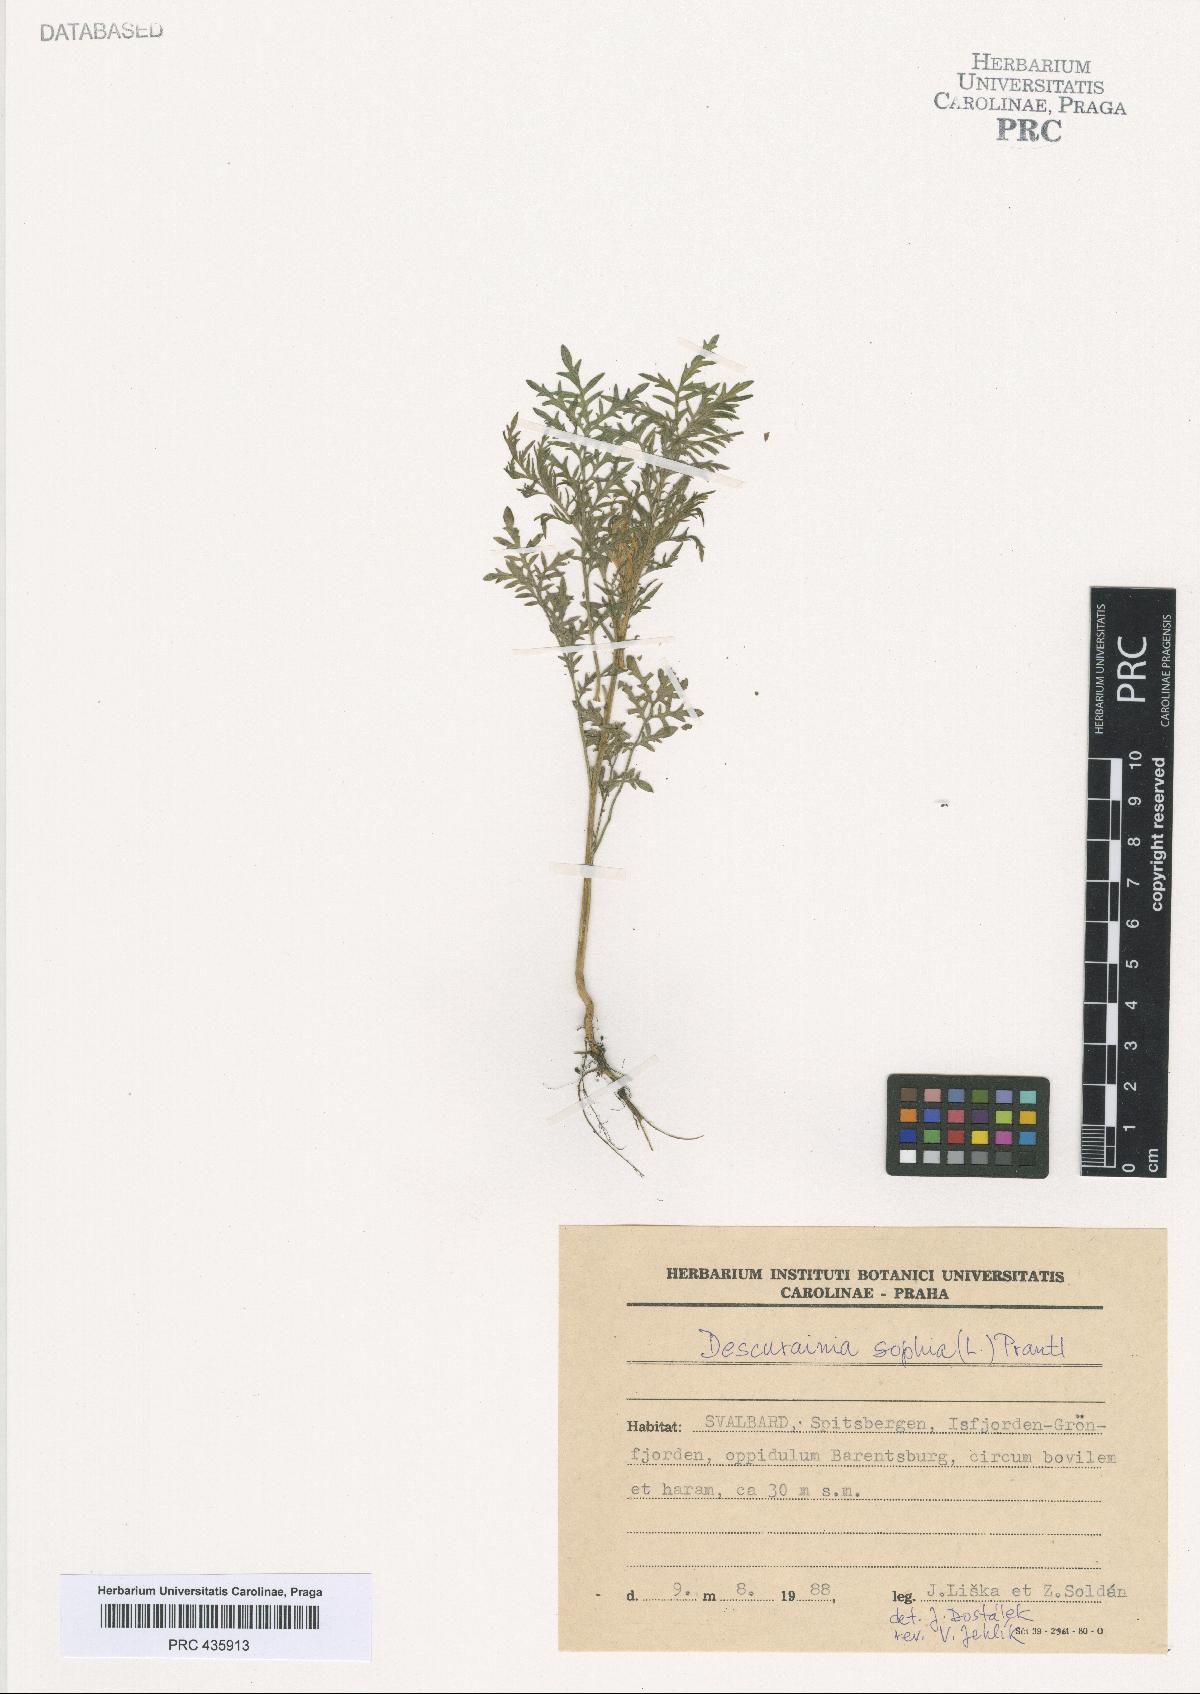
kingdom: Plantae
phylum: Tracheophyta
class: Magnoliopsida
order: Brassicales
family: Brassicaceae
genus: Descurainia
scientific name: Descurainia sophia
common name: Flixweed
